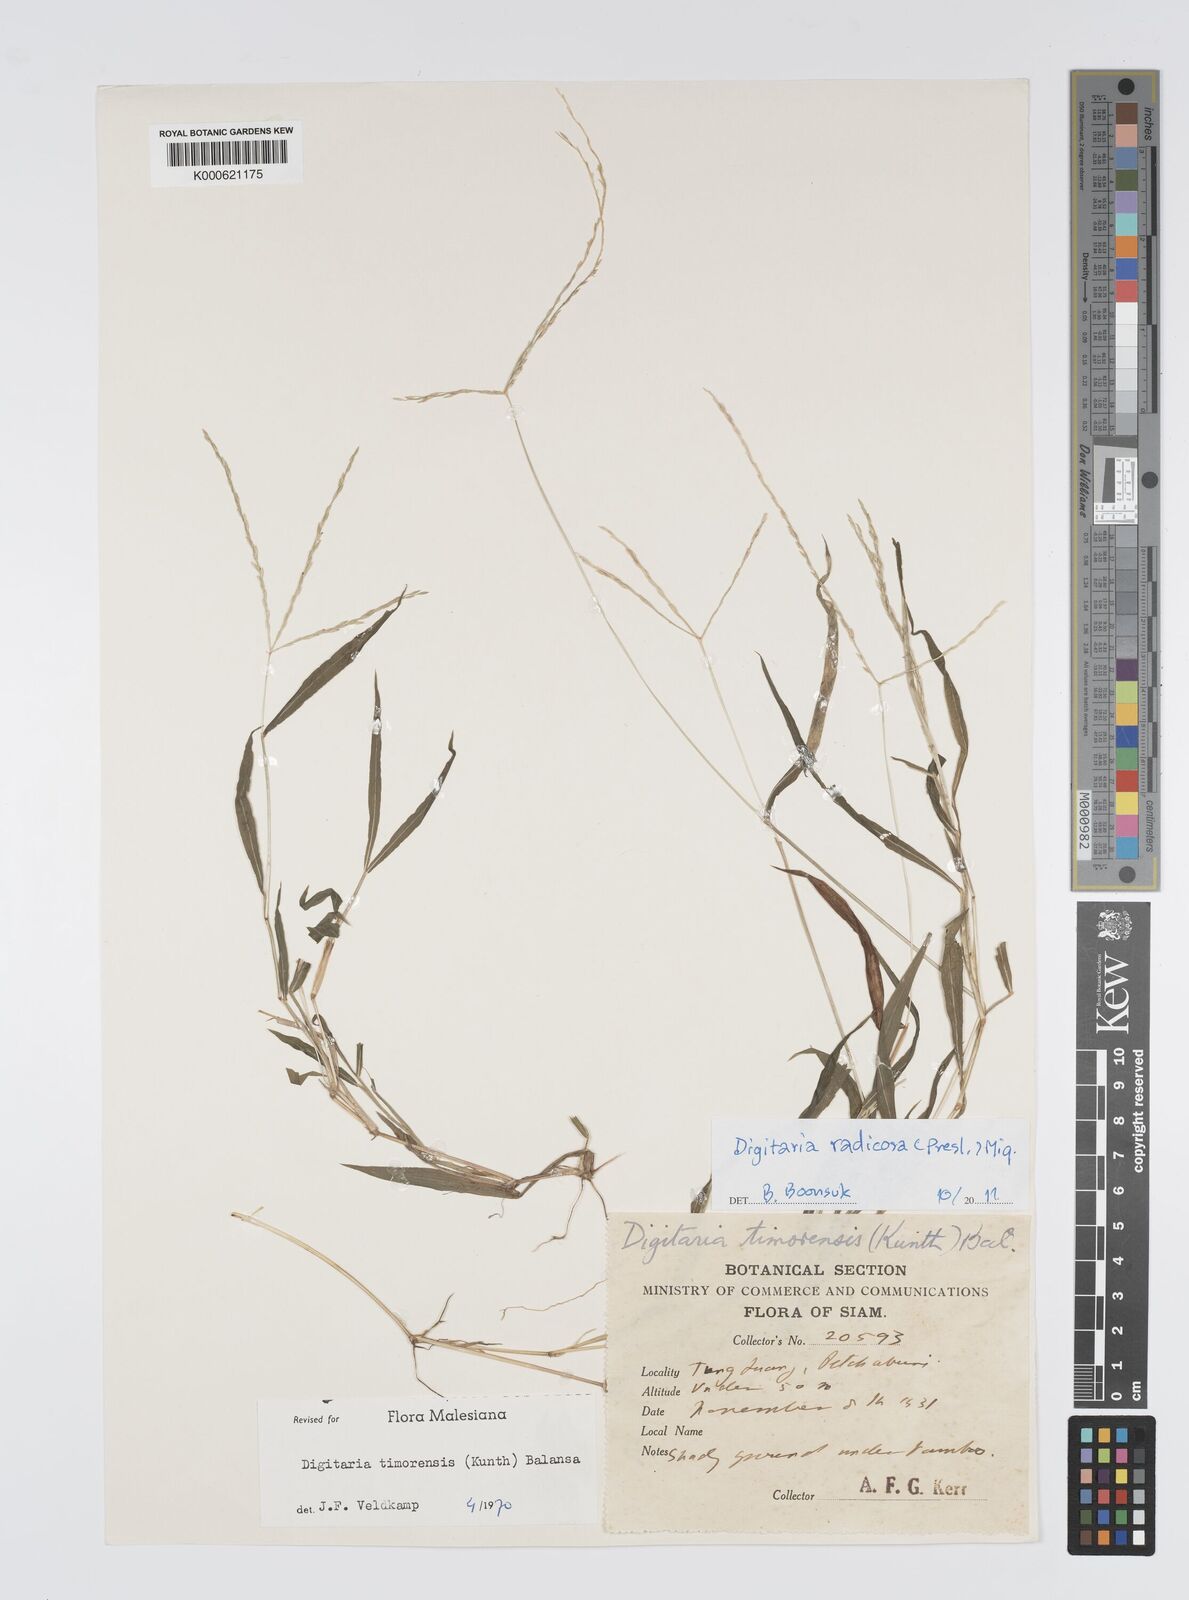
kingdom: Plantae
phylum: Tracheophyta
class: Liliopsida
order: Poales
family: Poaceae
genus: Digitaria
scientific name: Digitaria radicosa
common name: Trailing crabgrass
